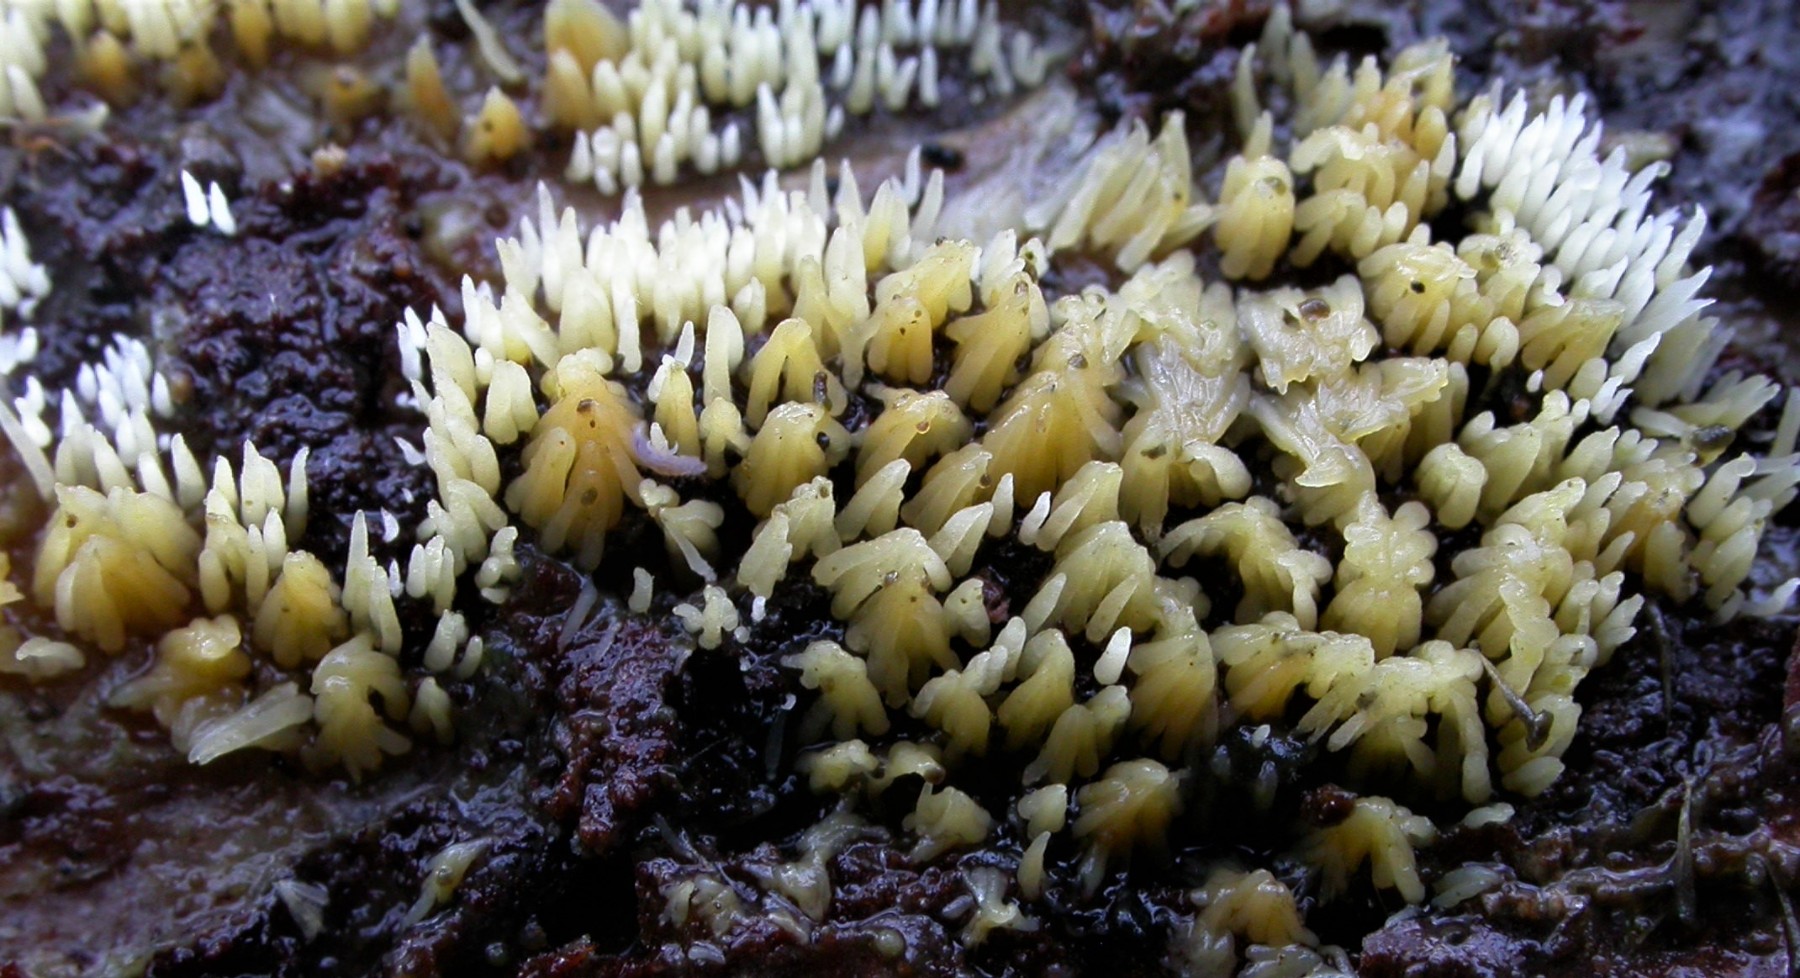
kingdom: Fungi
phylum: Basidiomycota
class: Agaricomycetes
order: Agaricales
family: Clavariaceae
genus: Mucronella
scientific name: Mucronella flava
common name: gul hængepig
